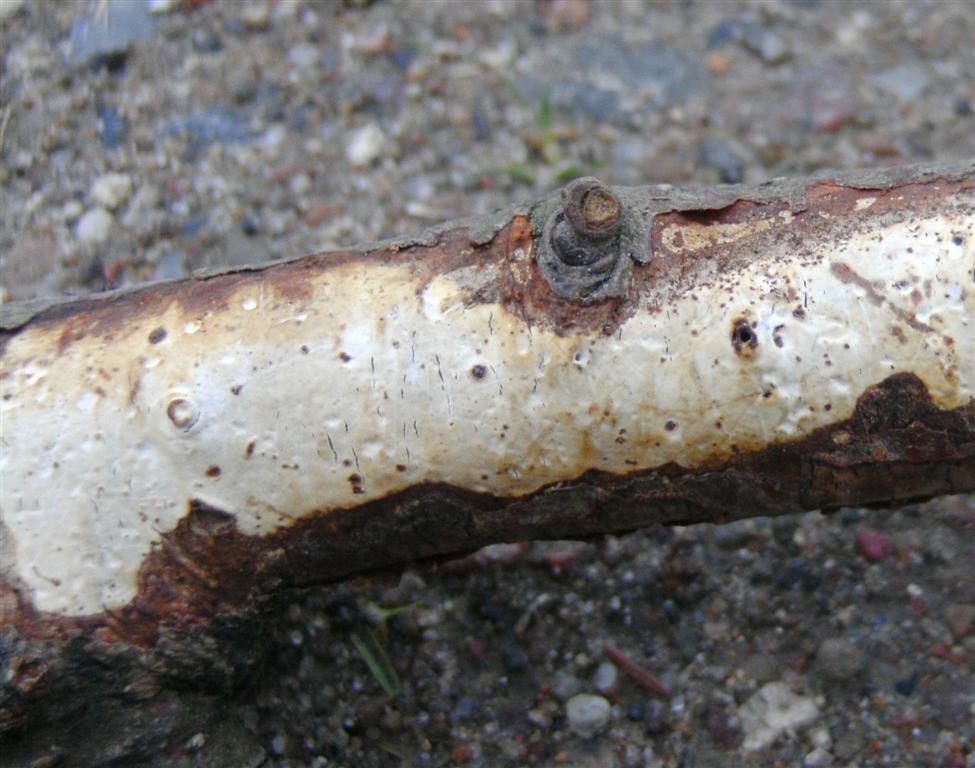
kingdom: Fungi
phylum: Basidiomycota
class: Agaricomycetes
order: Corticiales
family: Vuilleminiaceae
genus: Vuilleminia
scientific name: Vuilleminia comedens
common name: almindelig barksprænger
